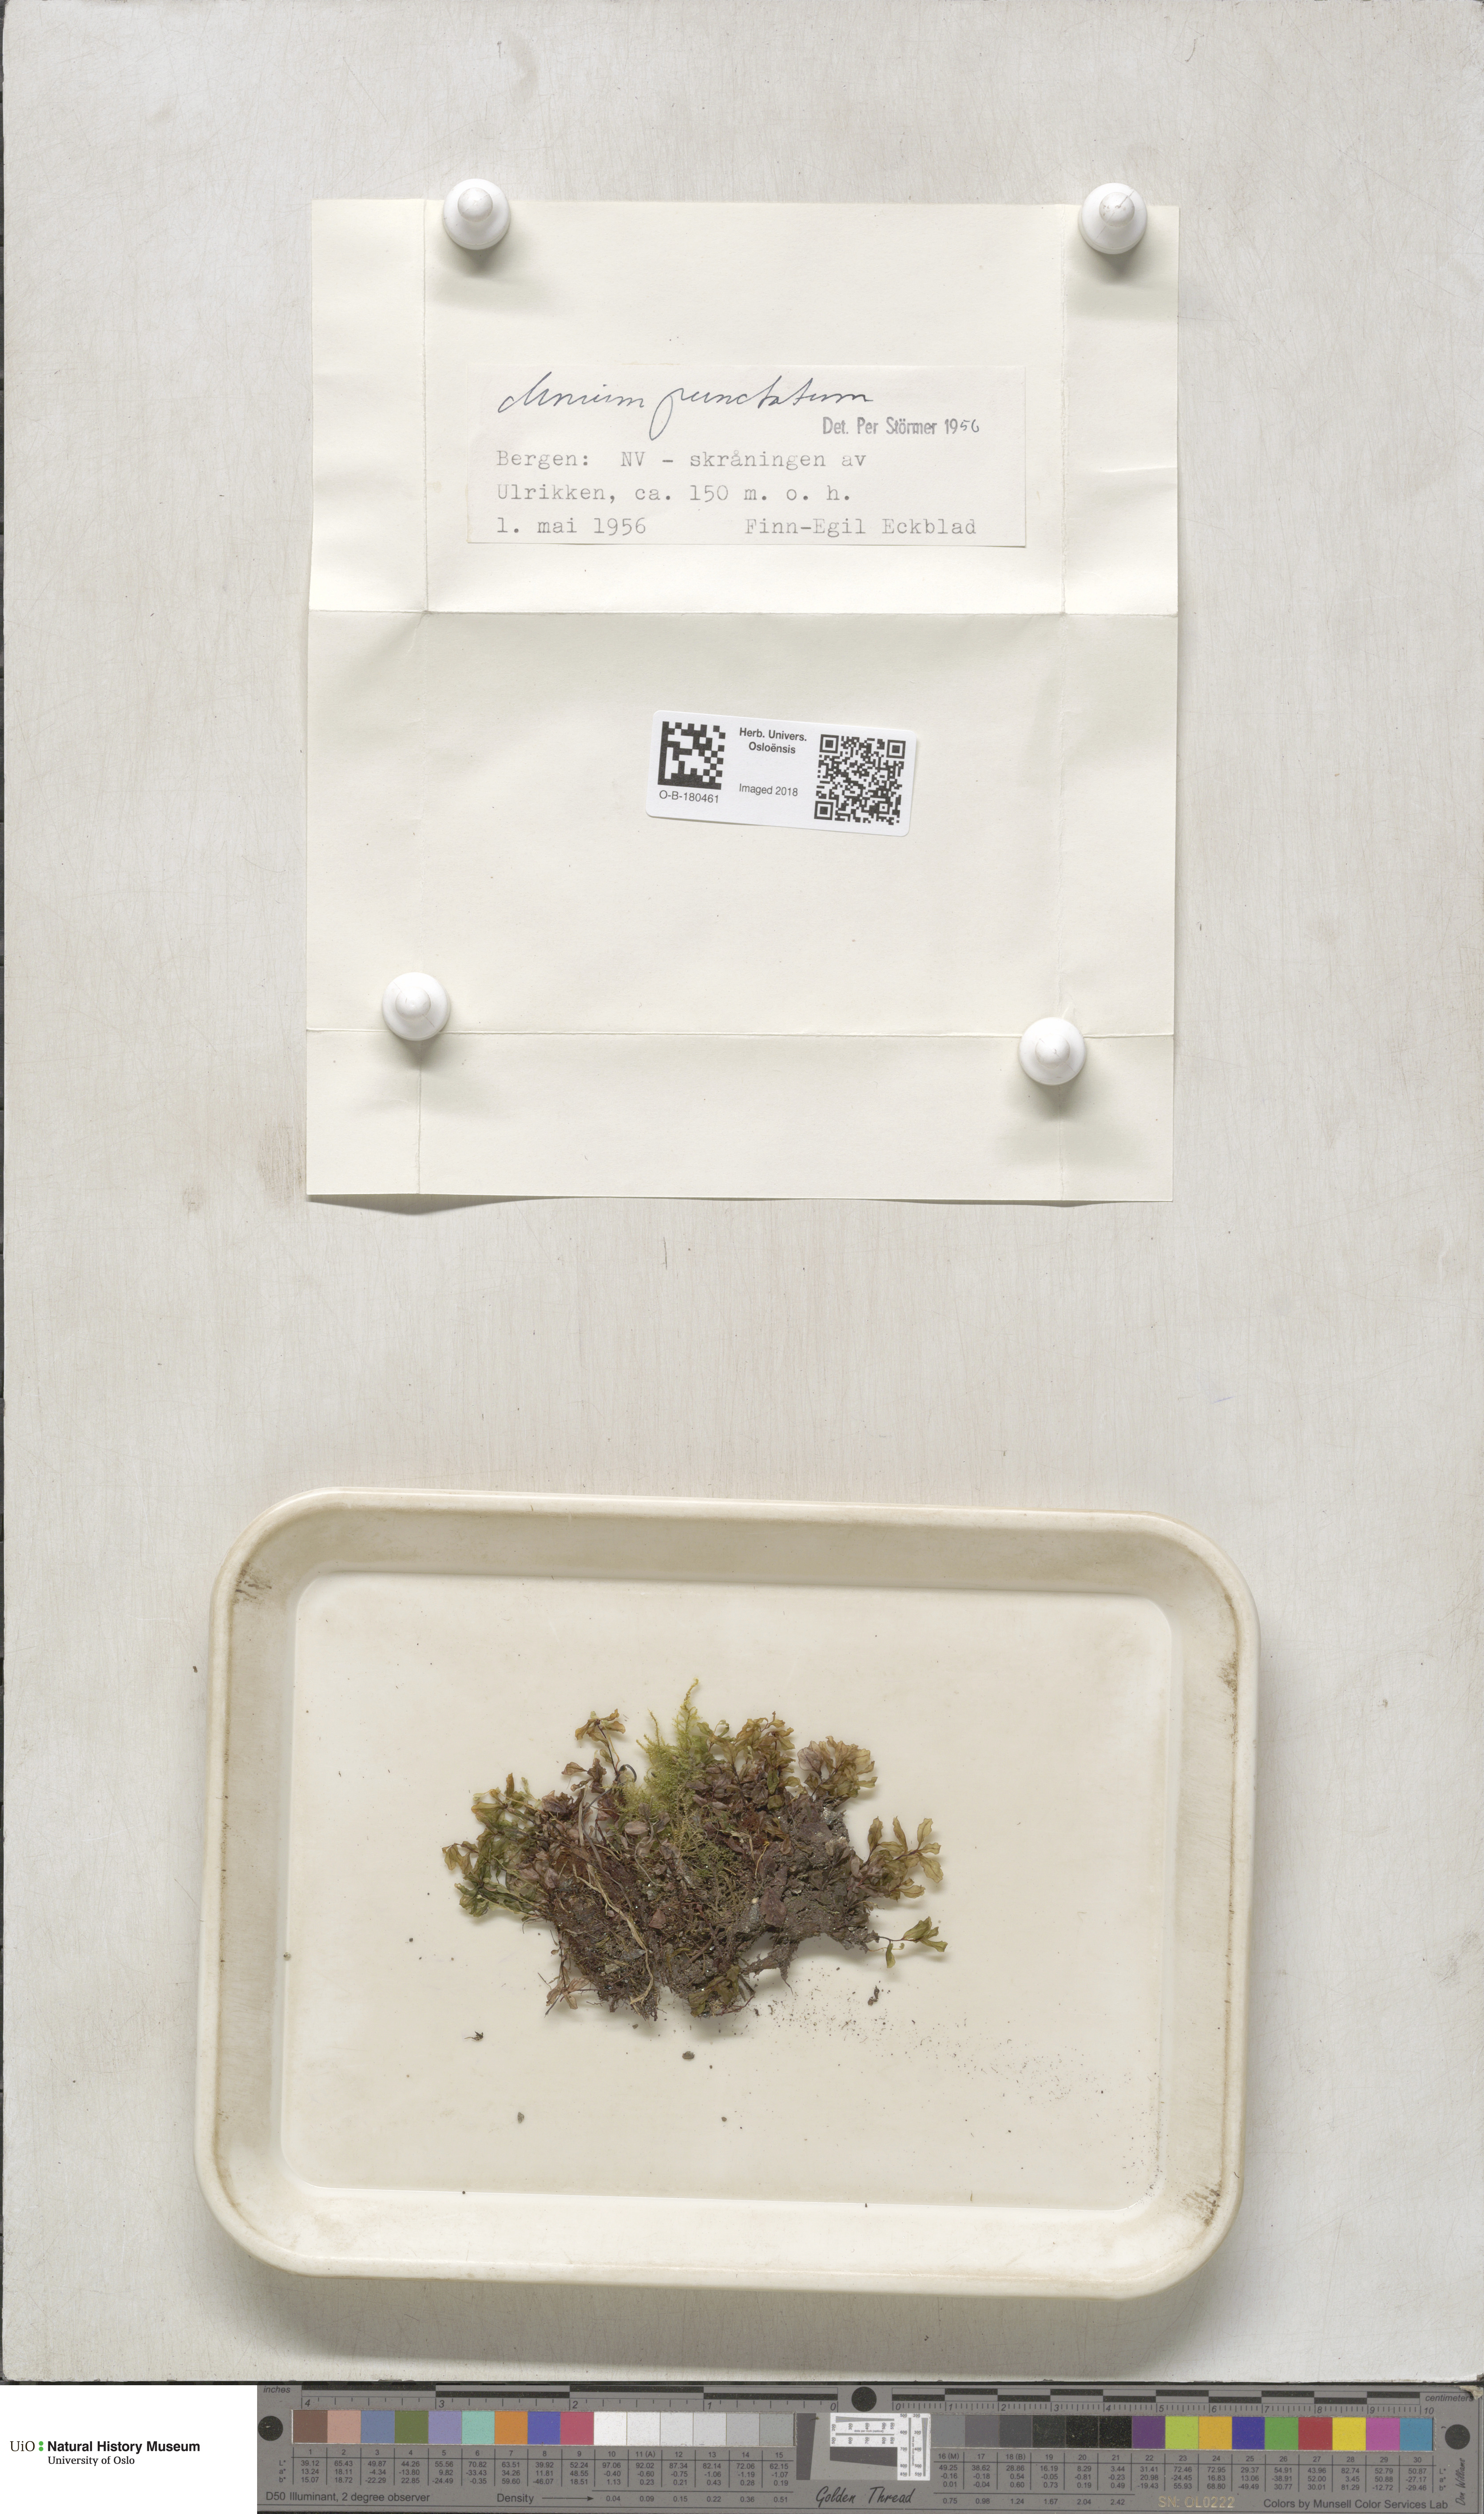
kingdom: Plantae
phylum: Bryophyta
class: Bryopsida
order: Bryales
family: Mniaceae
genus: Rhizomnium
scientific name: Rhizomnium punctatum
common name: Dotted leafy moss
